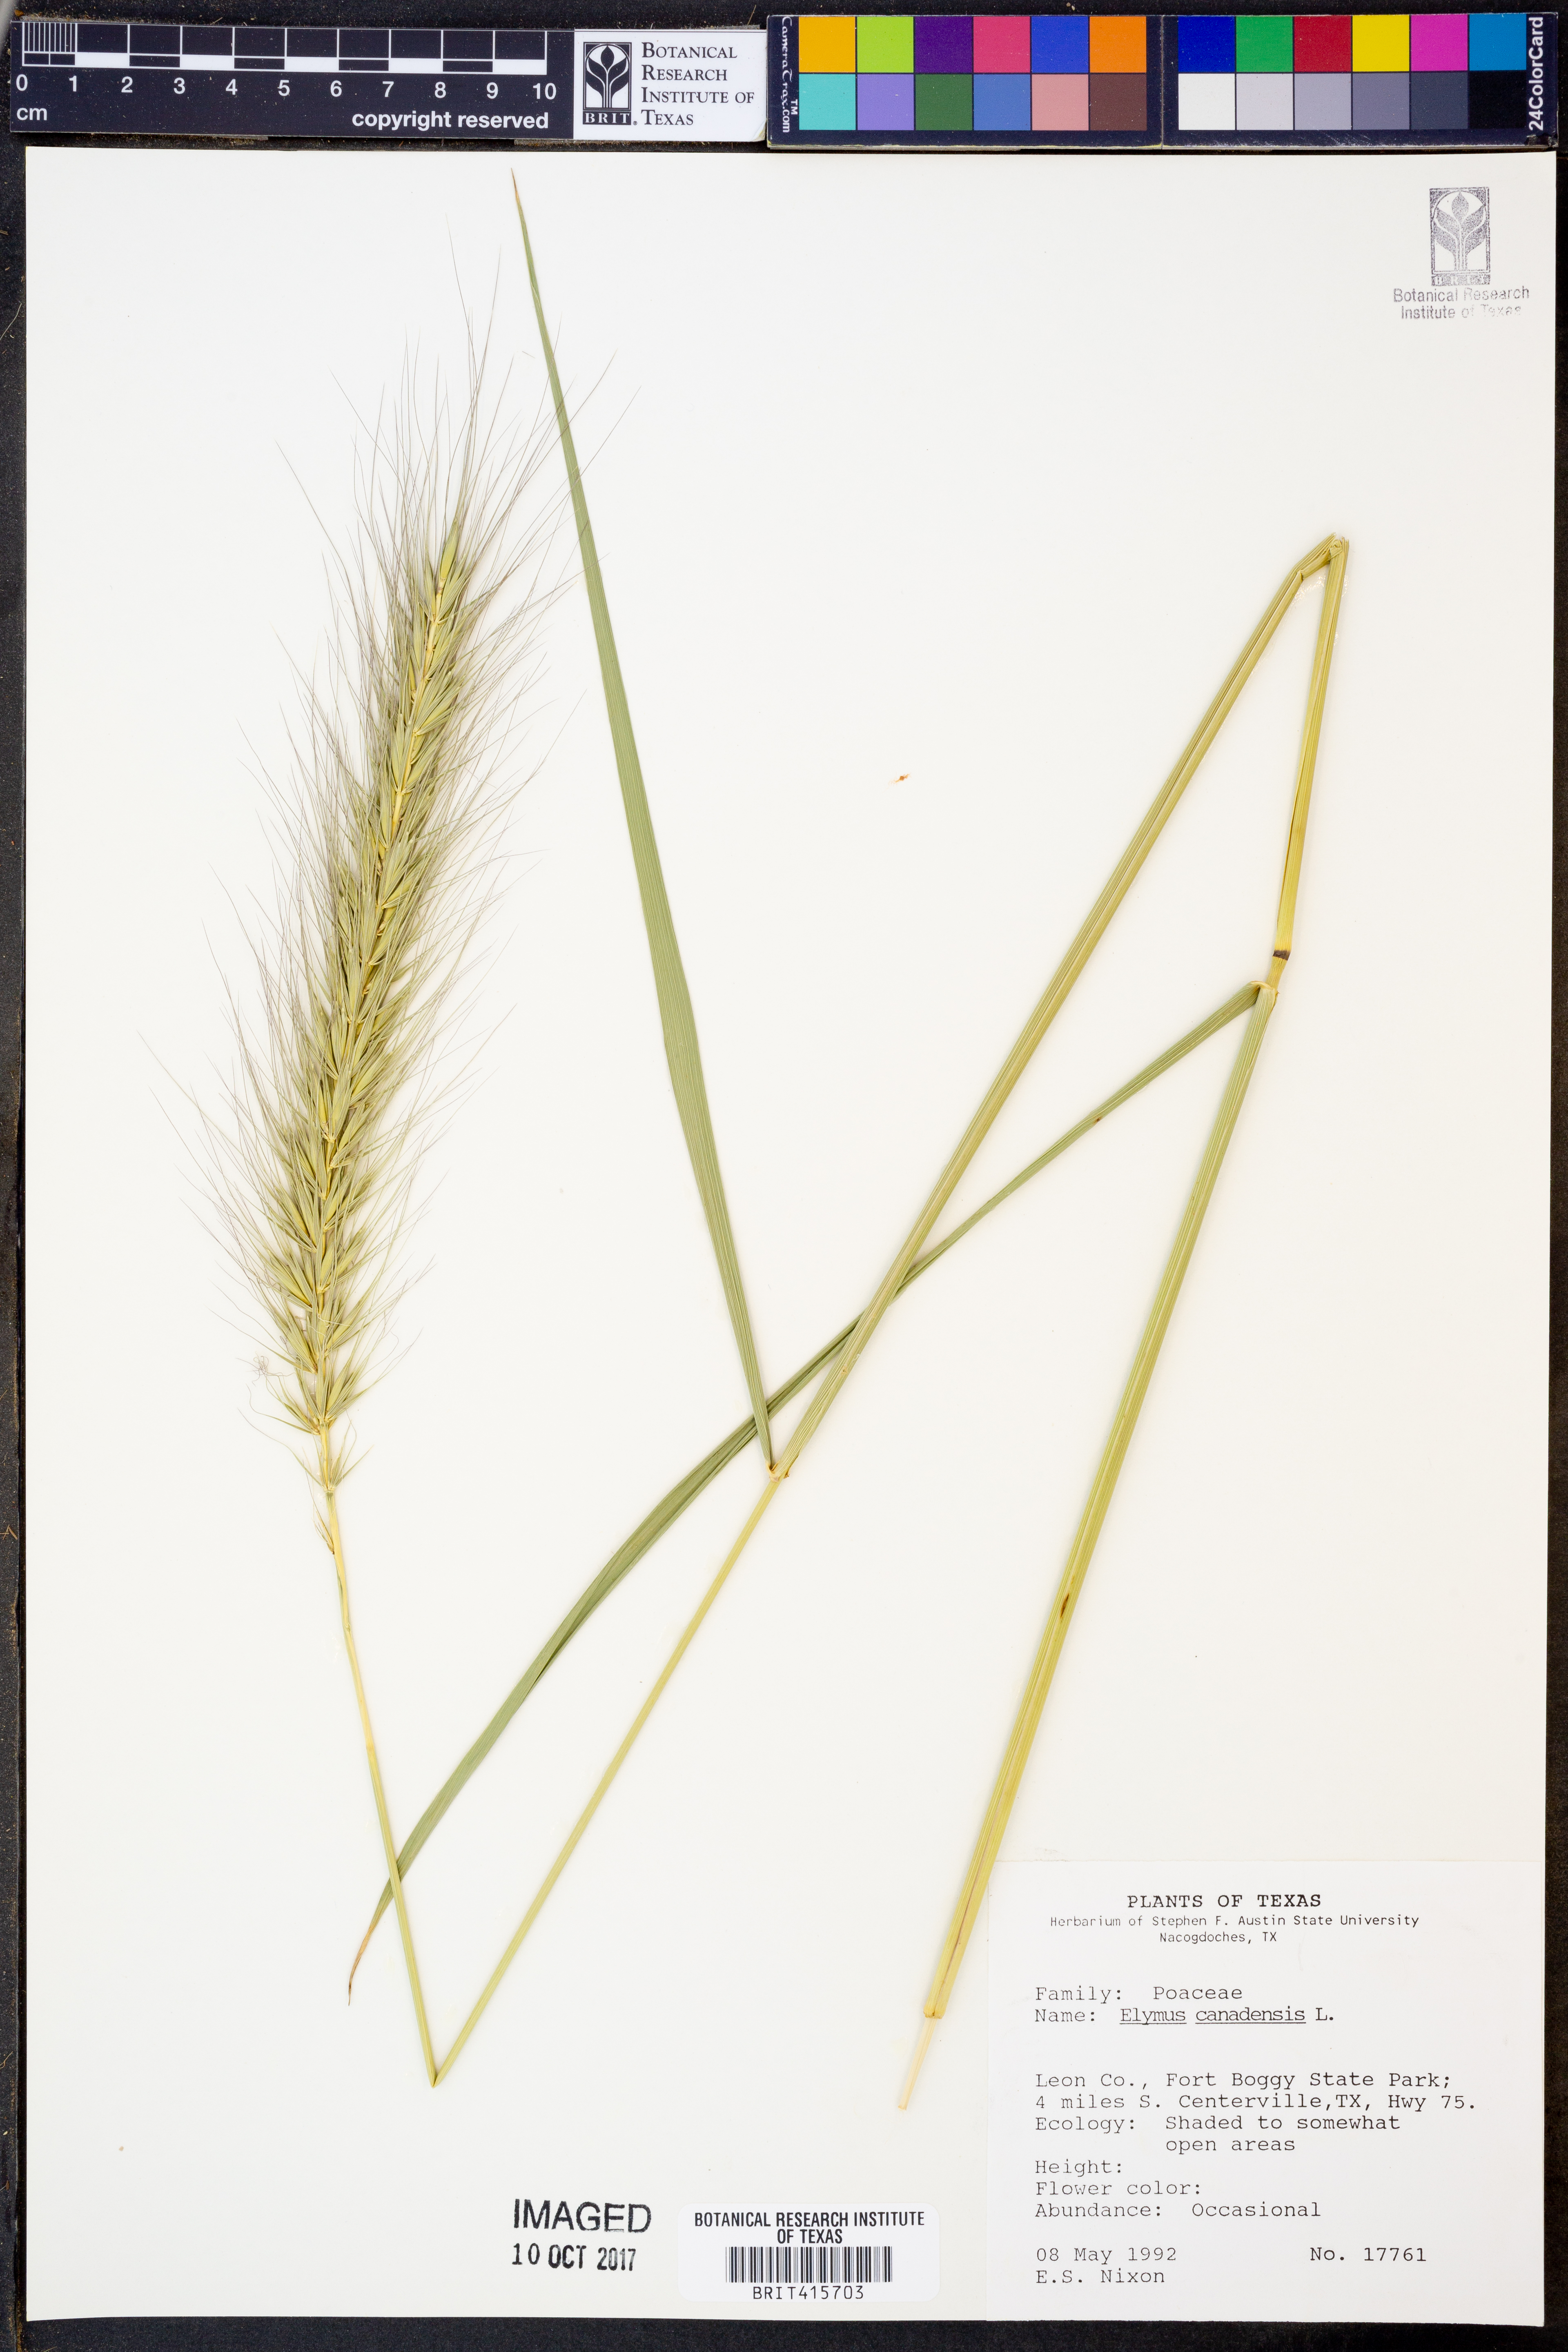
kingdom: Plantae
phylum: Tracheophyta
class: Liliopsida
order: Poales
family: Poaceae
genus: Elymus
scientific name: Elymus canadensis
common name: Canada wild rye
